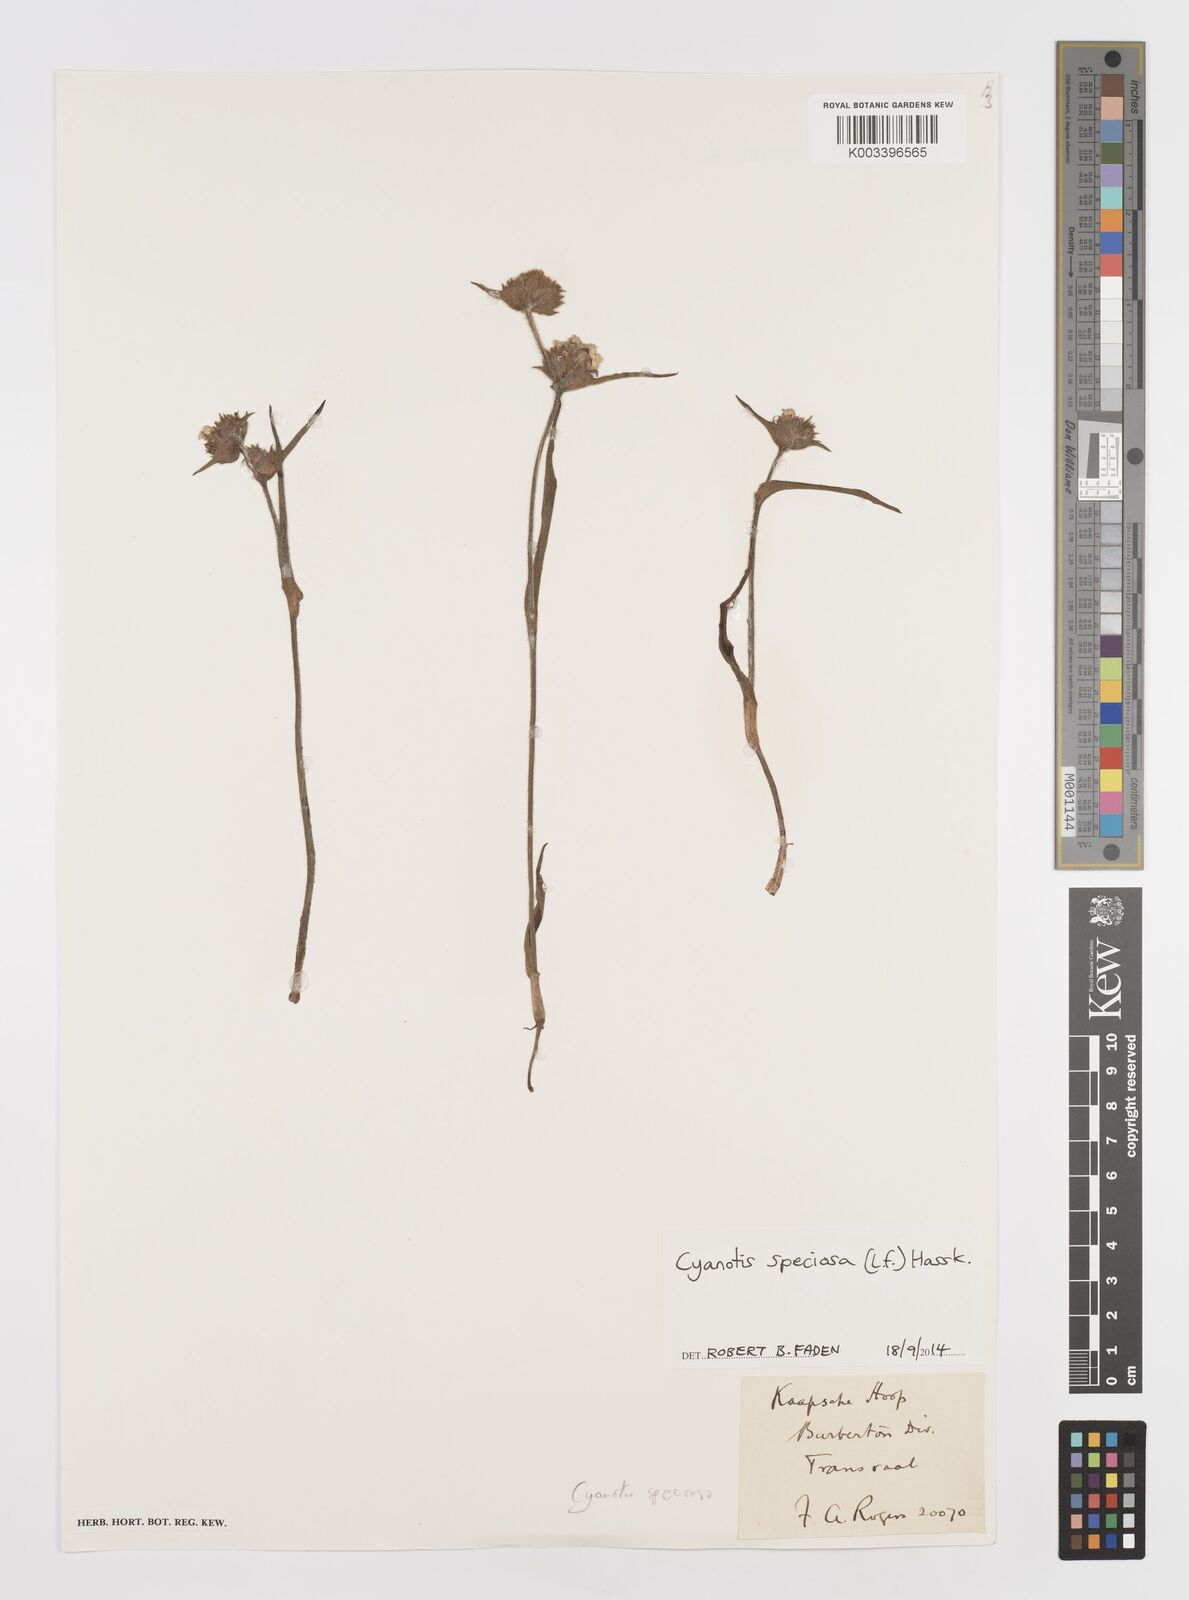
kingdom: Plantae
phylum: Tracheophyta
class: Liliopsida
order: Commelinales
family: Commelinaceae
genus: Cyanotis
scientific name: Cyanotis speciosa
